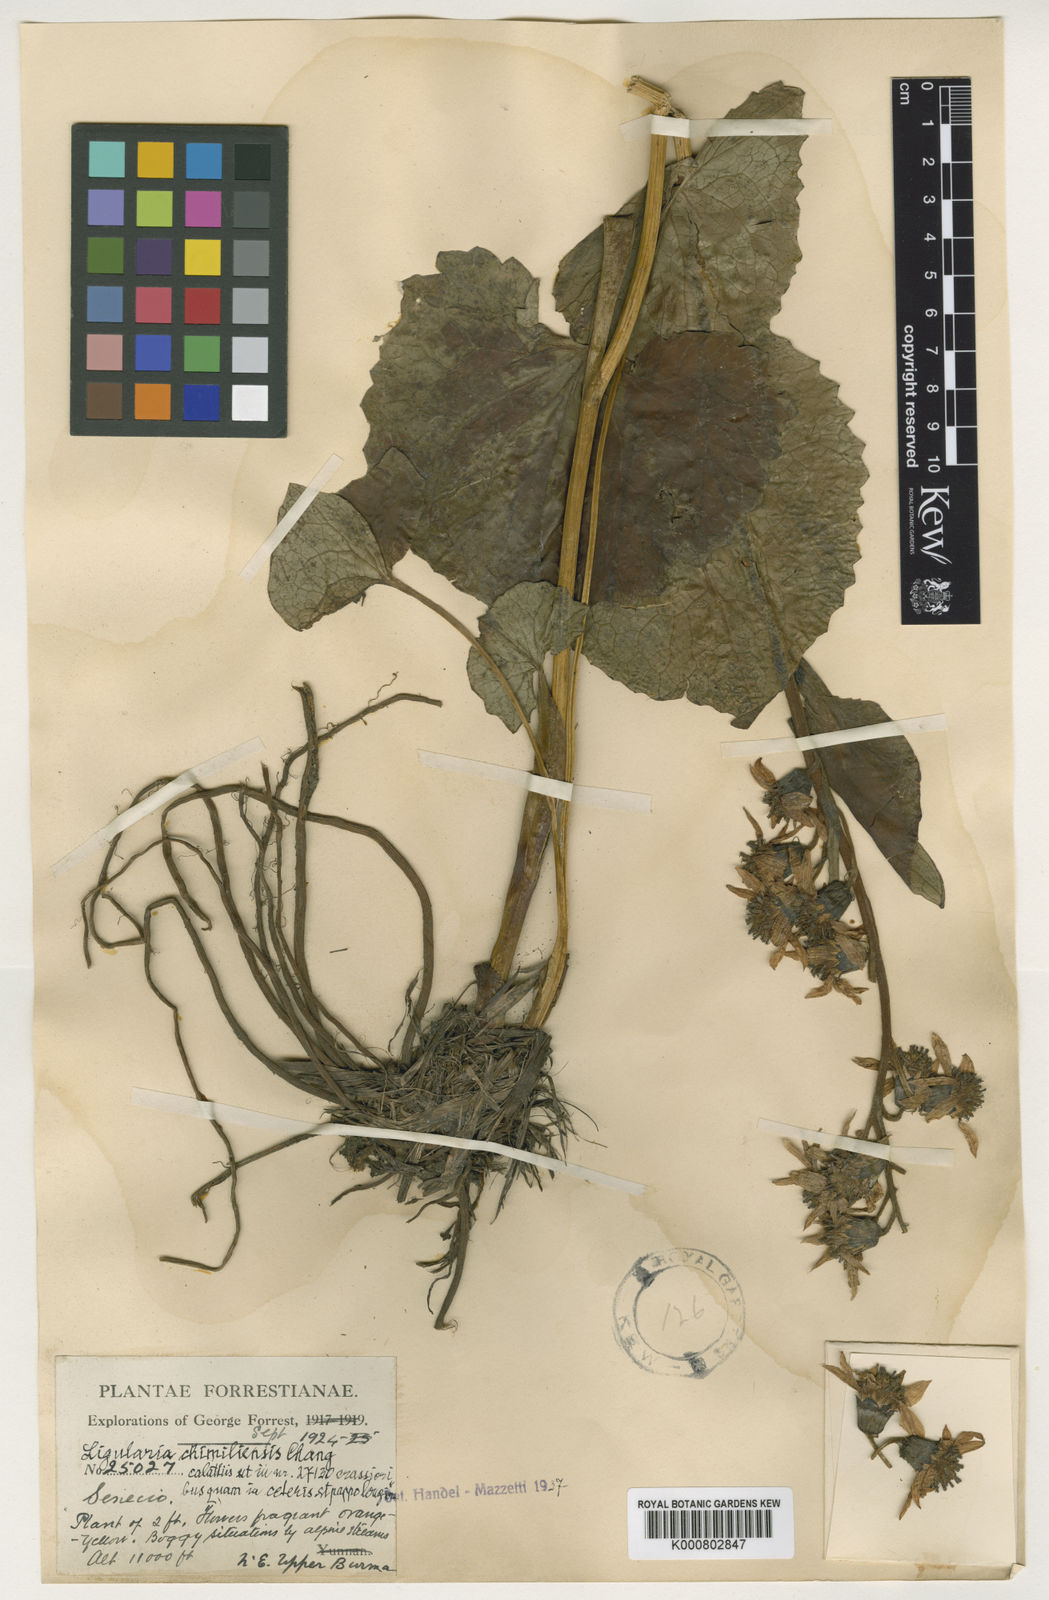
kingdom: Plantae
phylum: Tracheophyta
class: Magnoliopsida
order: Asterales
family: Asteraceae
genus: Ligularia
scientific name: Ligularia chimiliensis
